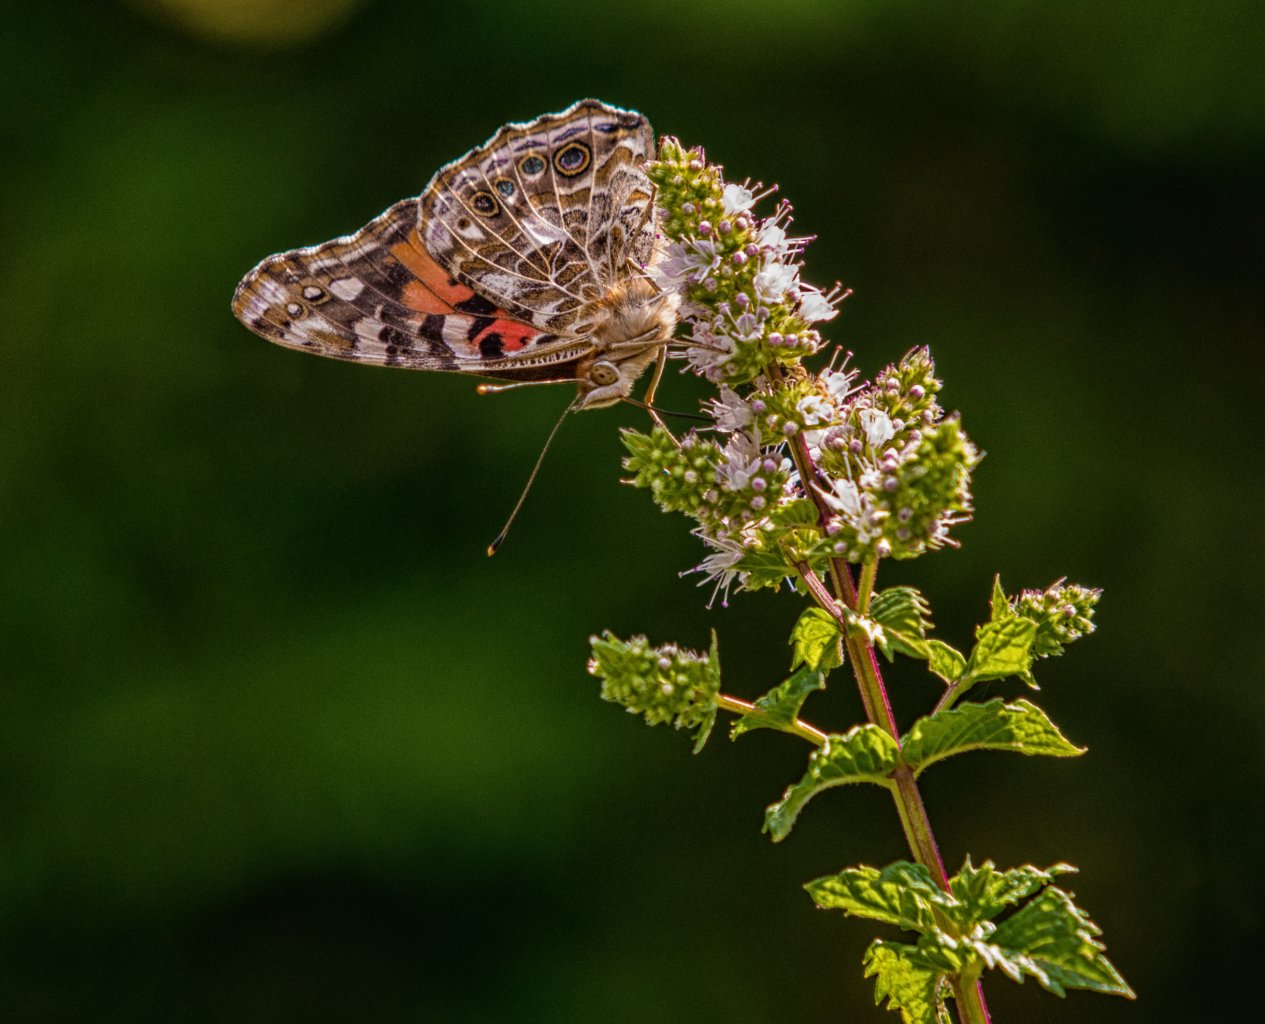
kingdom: Animalia
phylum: Arthropoda
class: Insecta
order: Lepidoptera
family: Nymphalidae
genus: Vanessa
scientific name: Vanessa cardui
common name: Painted Lady
